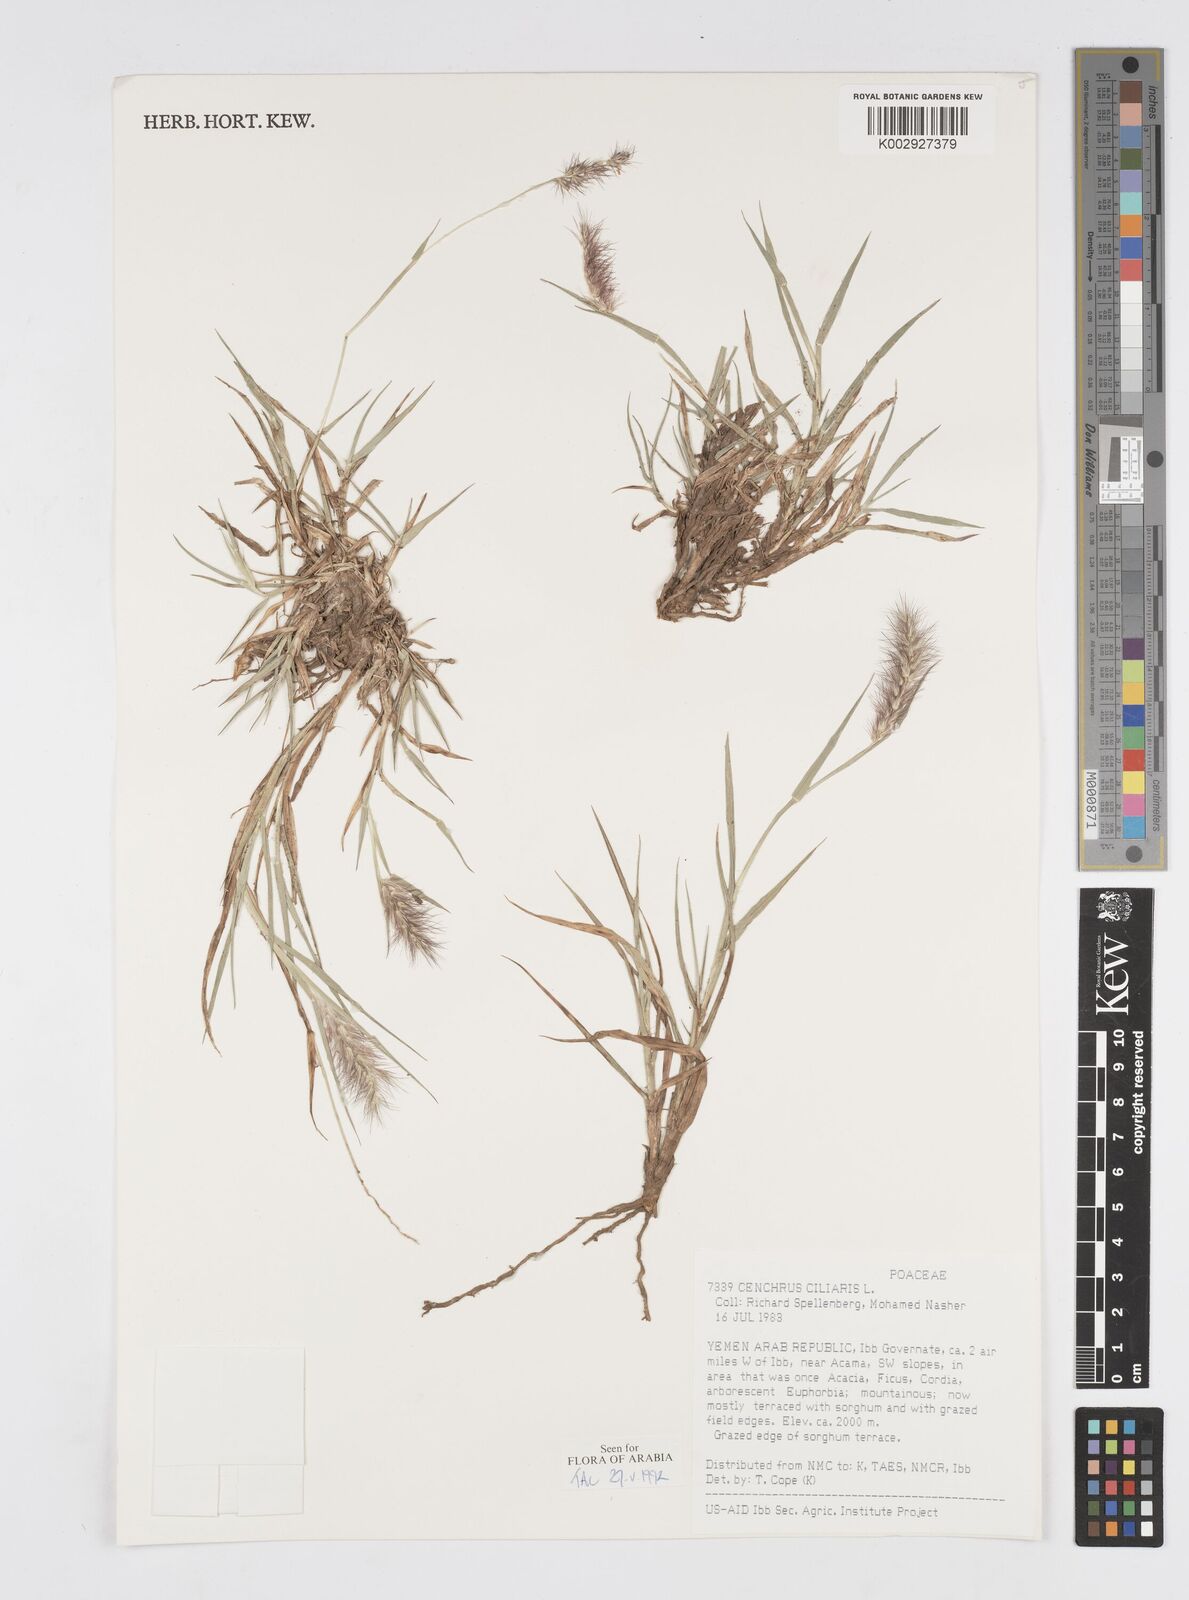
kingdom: Plantae
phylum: Tracheophyta
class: Liliopsida
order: Poales
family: Poaceae
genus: Cenchrus
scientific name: Cenchrus ciliaris
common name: Buffelgrass
